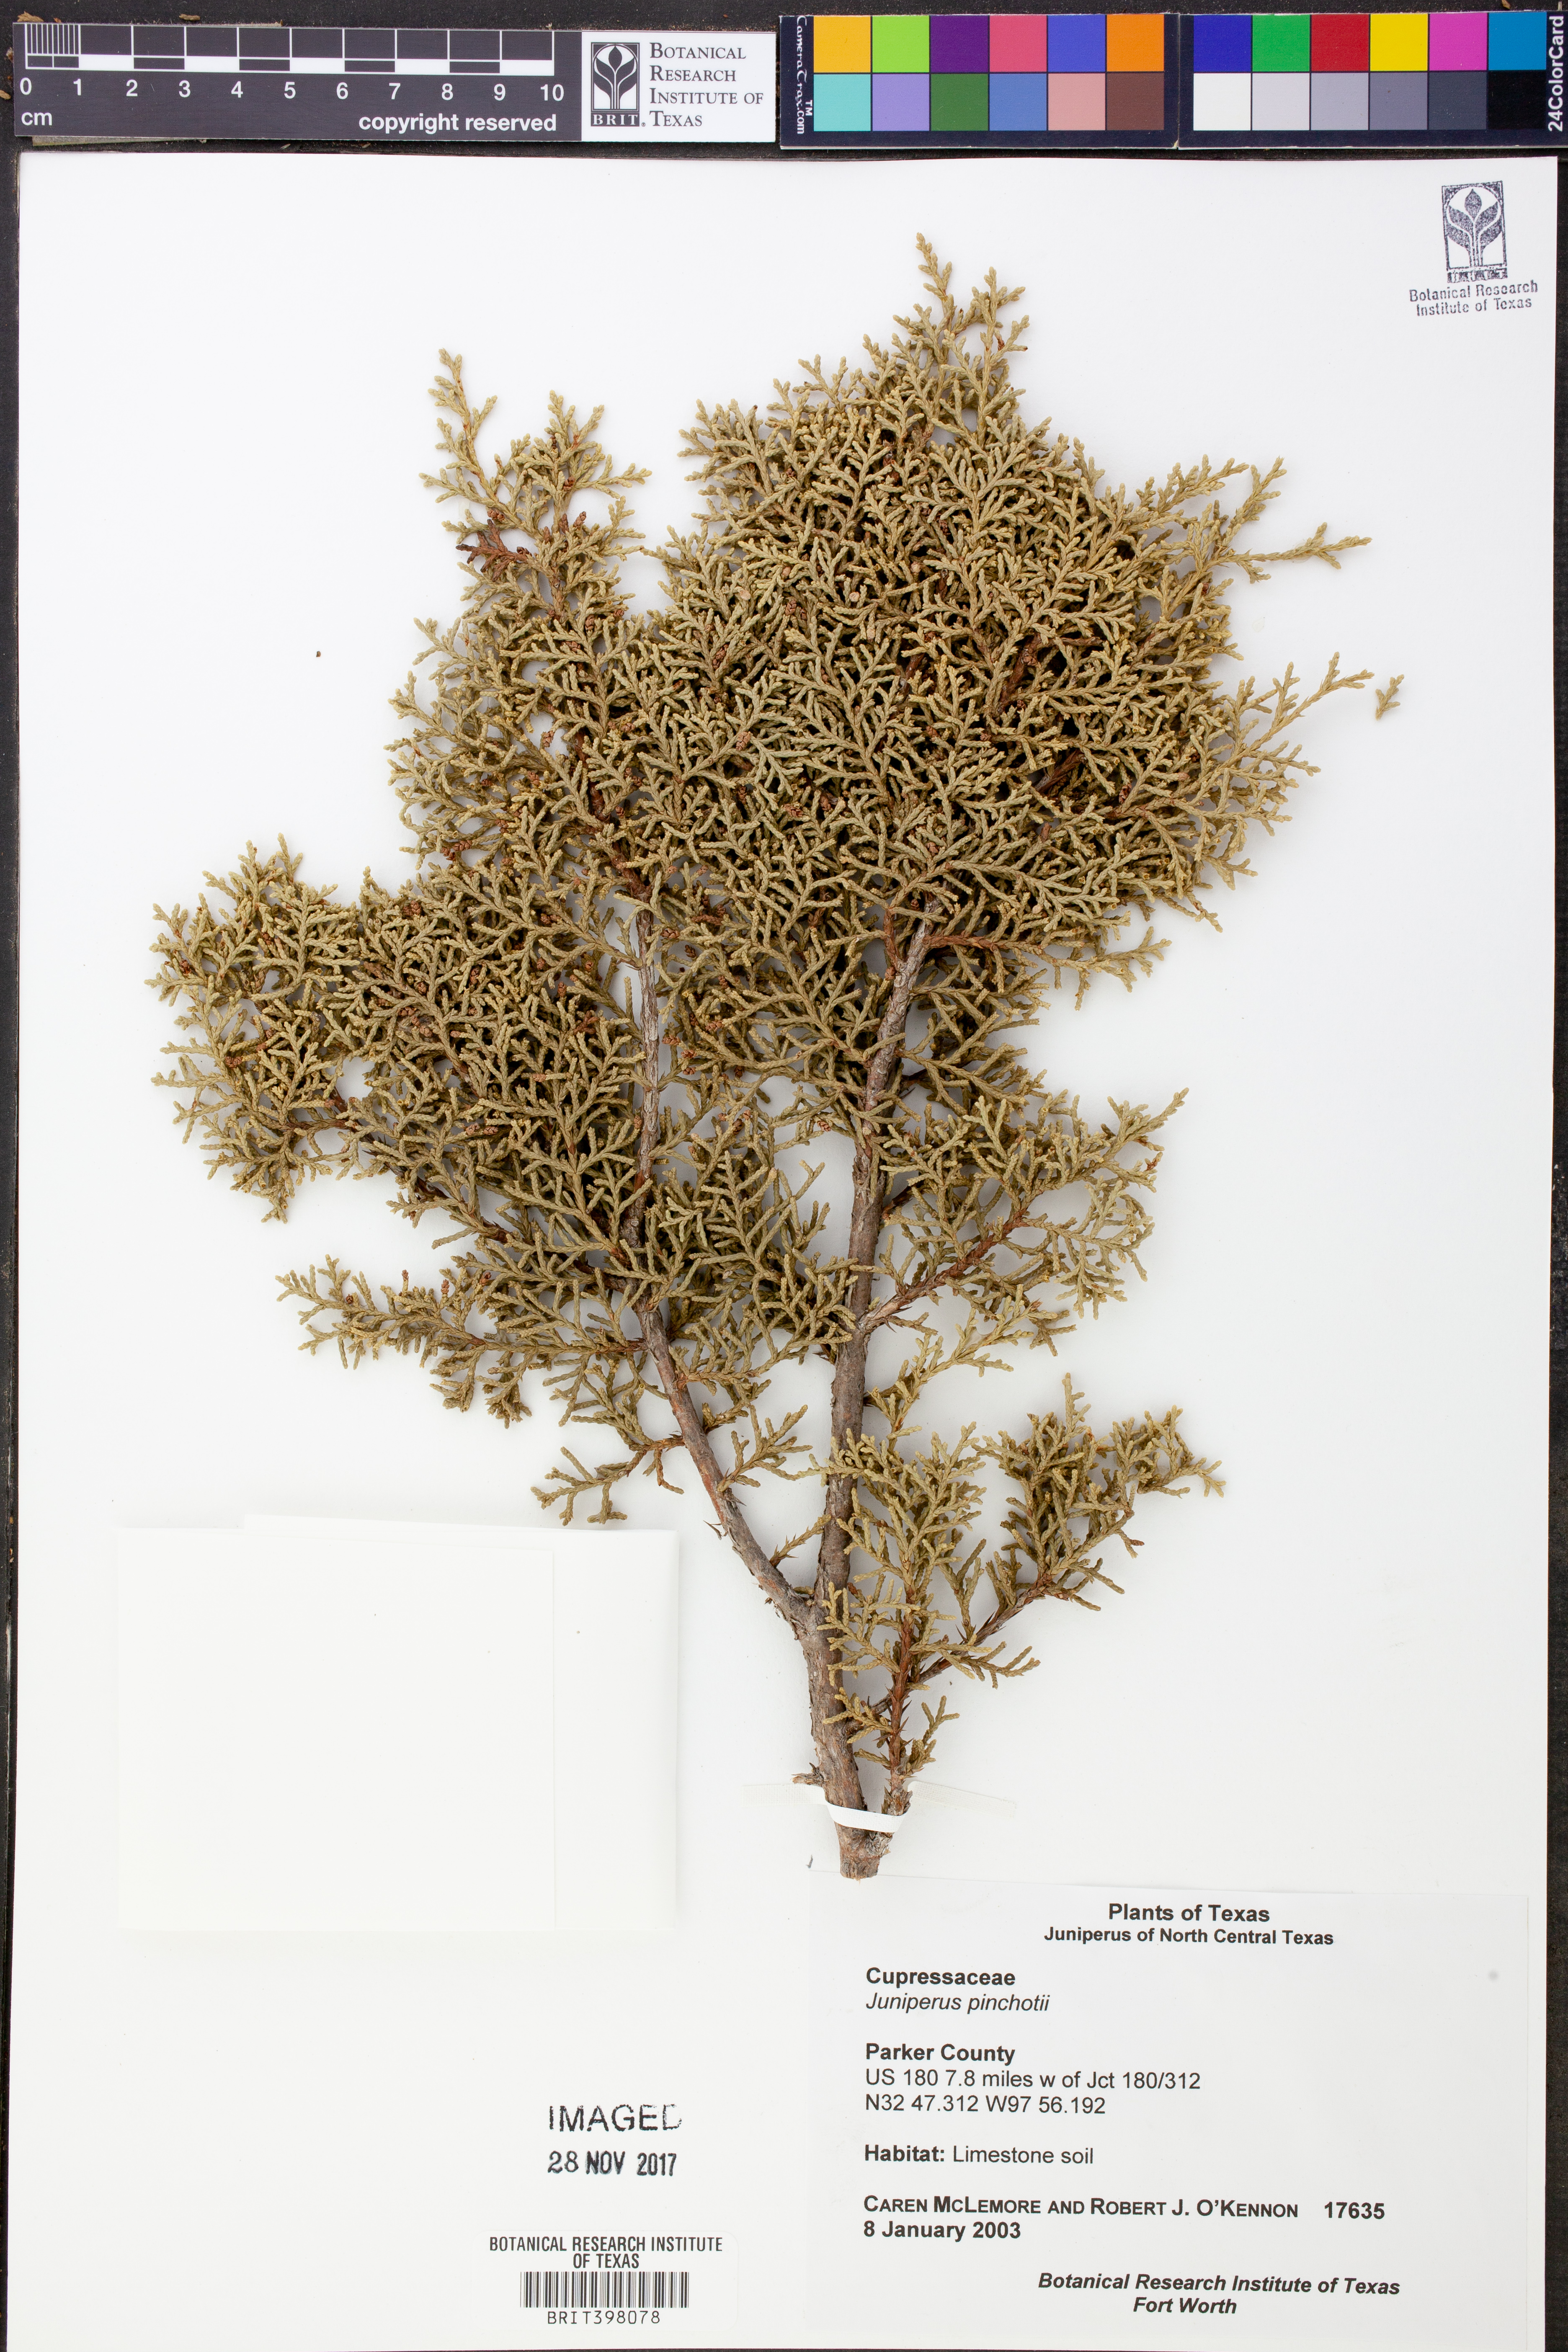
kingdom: Plantae
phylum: Tracheophyta
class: Pinopsida
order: Pinales
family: Cupressaceae
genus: Juniperus
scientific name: Juniperus pinchotii
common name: Pinchot juniper
